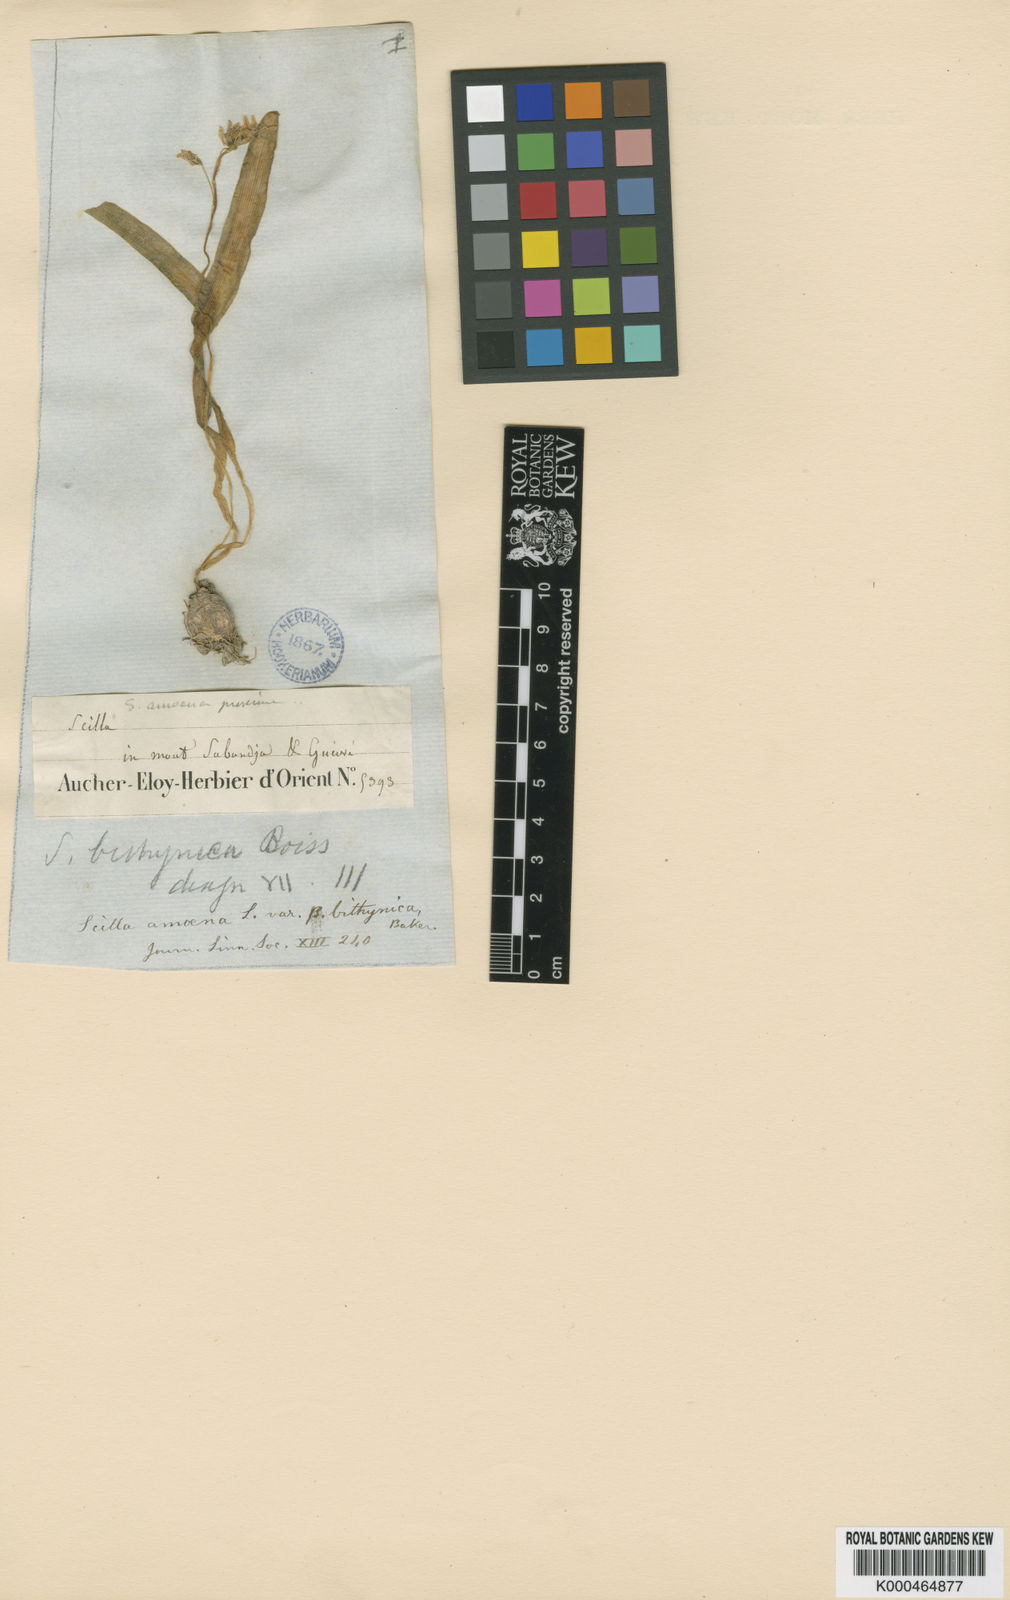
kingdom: Plantae
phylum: Tracheophyta
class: Liliopsida
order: Asparagales
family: Asparagaceae
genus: Scilla
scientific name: Scilla bithynica
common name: Turkish squill
